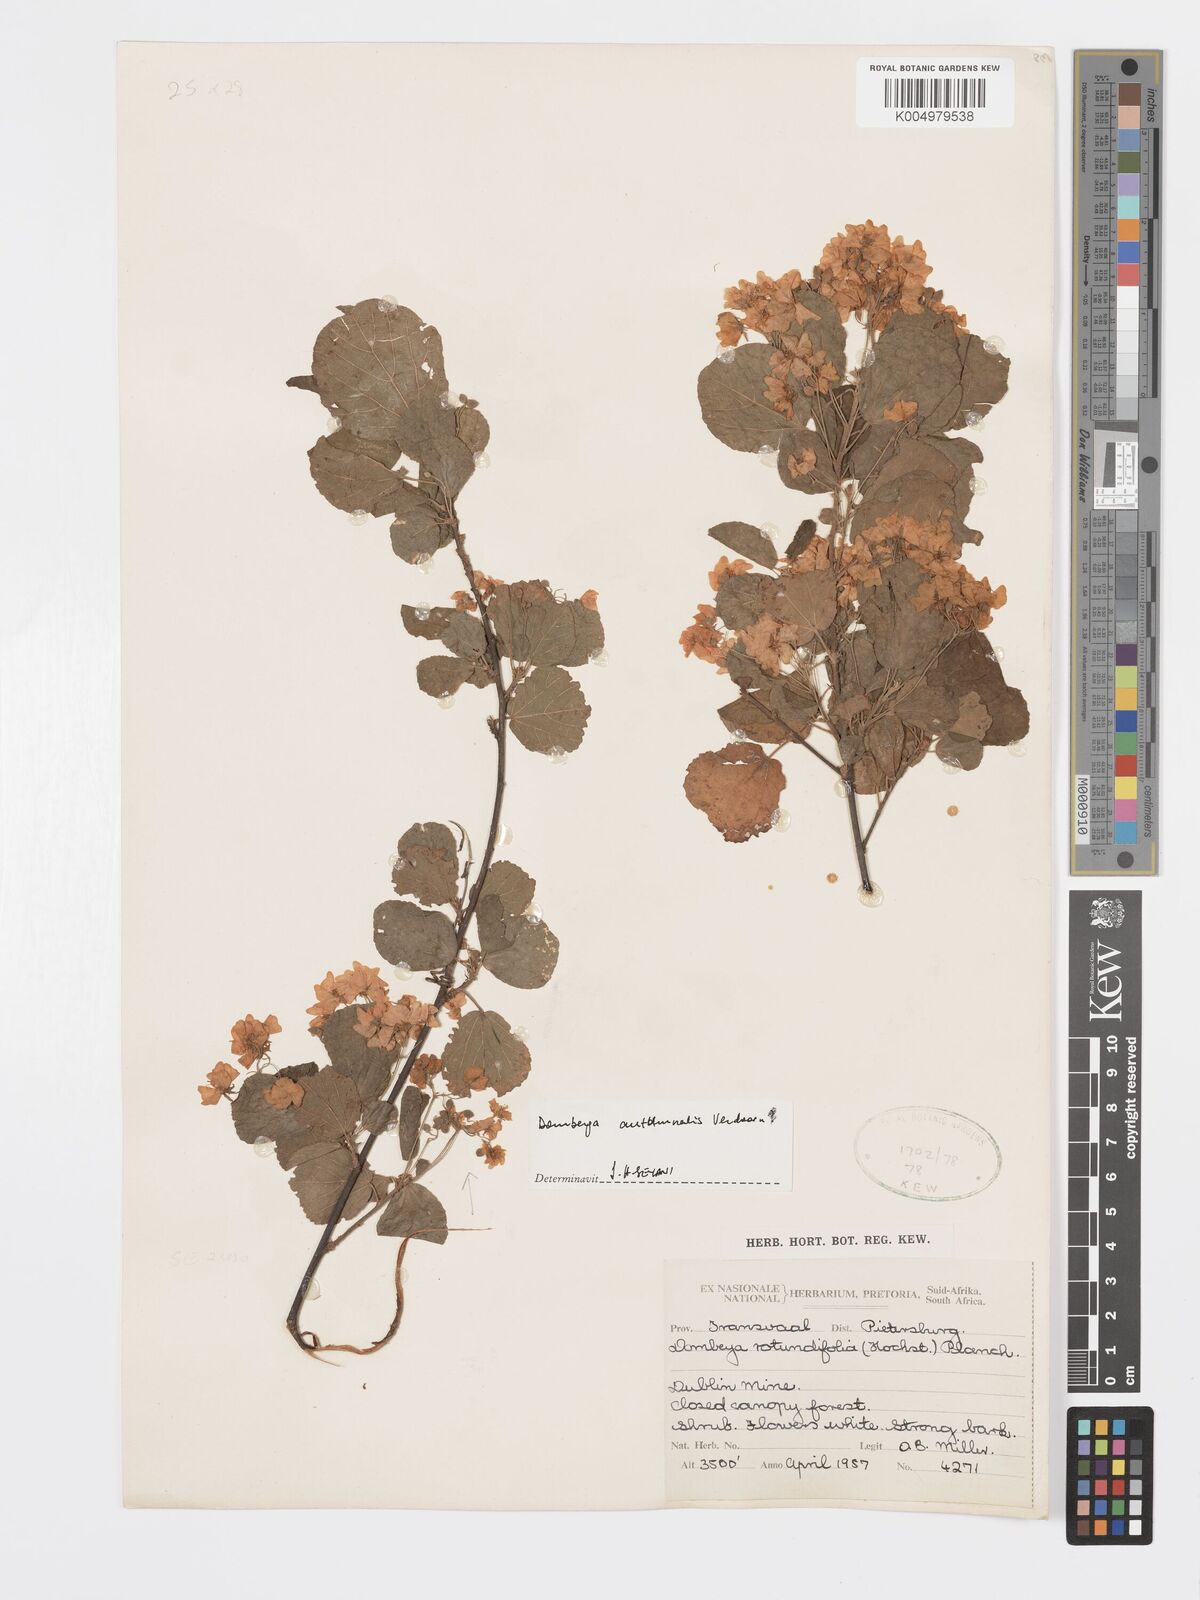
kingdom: Plantae
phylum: Tracheophyta
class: Magnoliopsida
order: Malvales
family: Malvaceae
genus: Dombeya
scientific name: Dombeya autumnalis
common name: Rock dombeya
